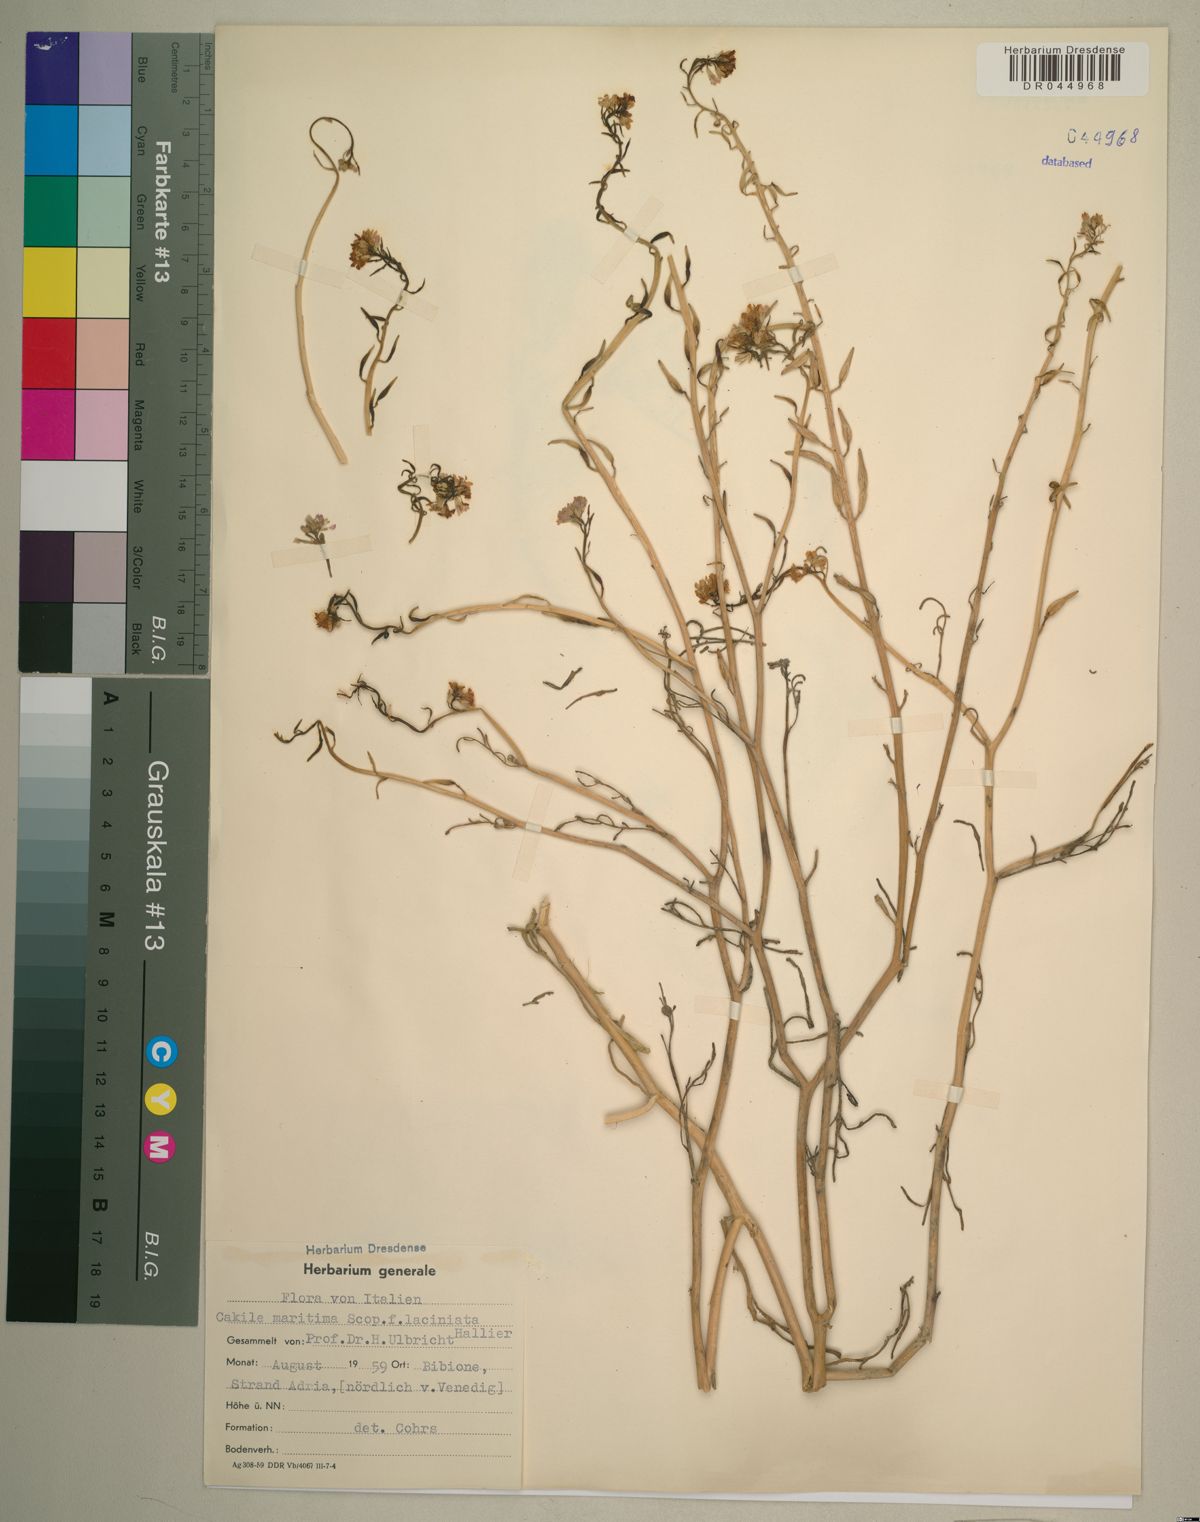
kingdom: Plantae
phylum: Tracheophyta
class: Magnoliopsida
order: Brassicales
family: Brassicaceae
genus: Cakile
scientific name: Cakile maritima
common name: Sea rocket
